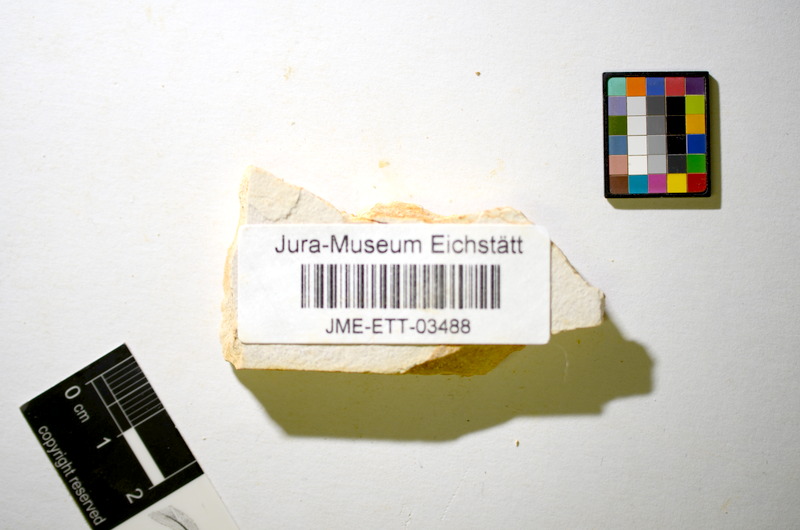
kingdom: Animalia
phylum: Chordata
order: Salmoniformes
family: Orthogonikleithridae
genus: Orthogonikleithrus
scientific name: Orthogonikleithrus hoelli
